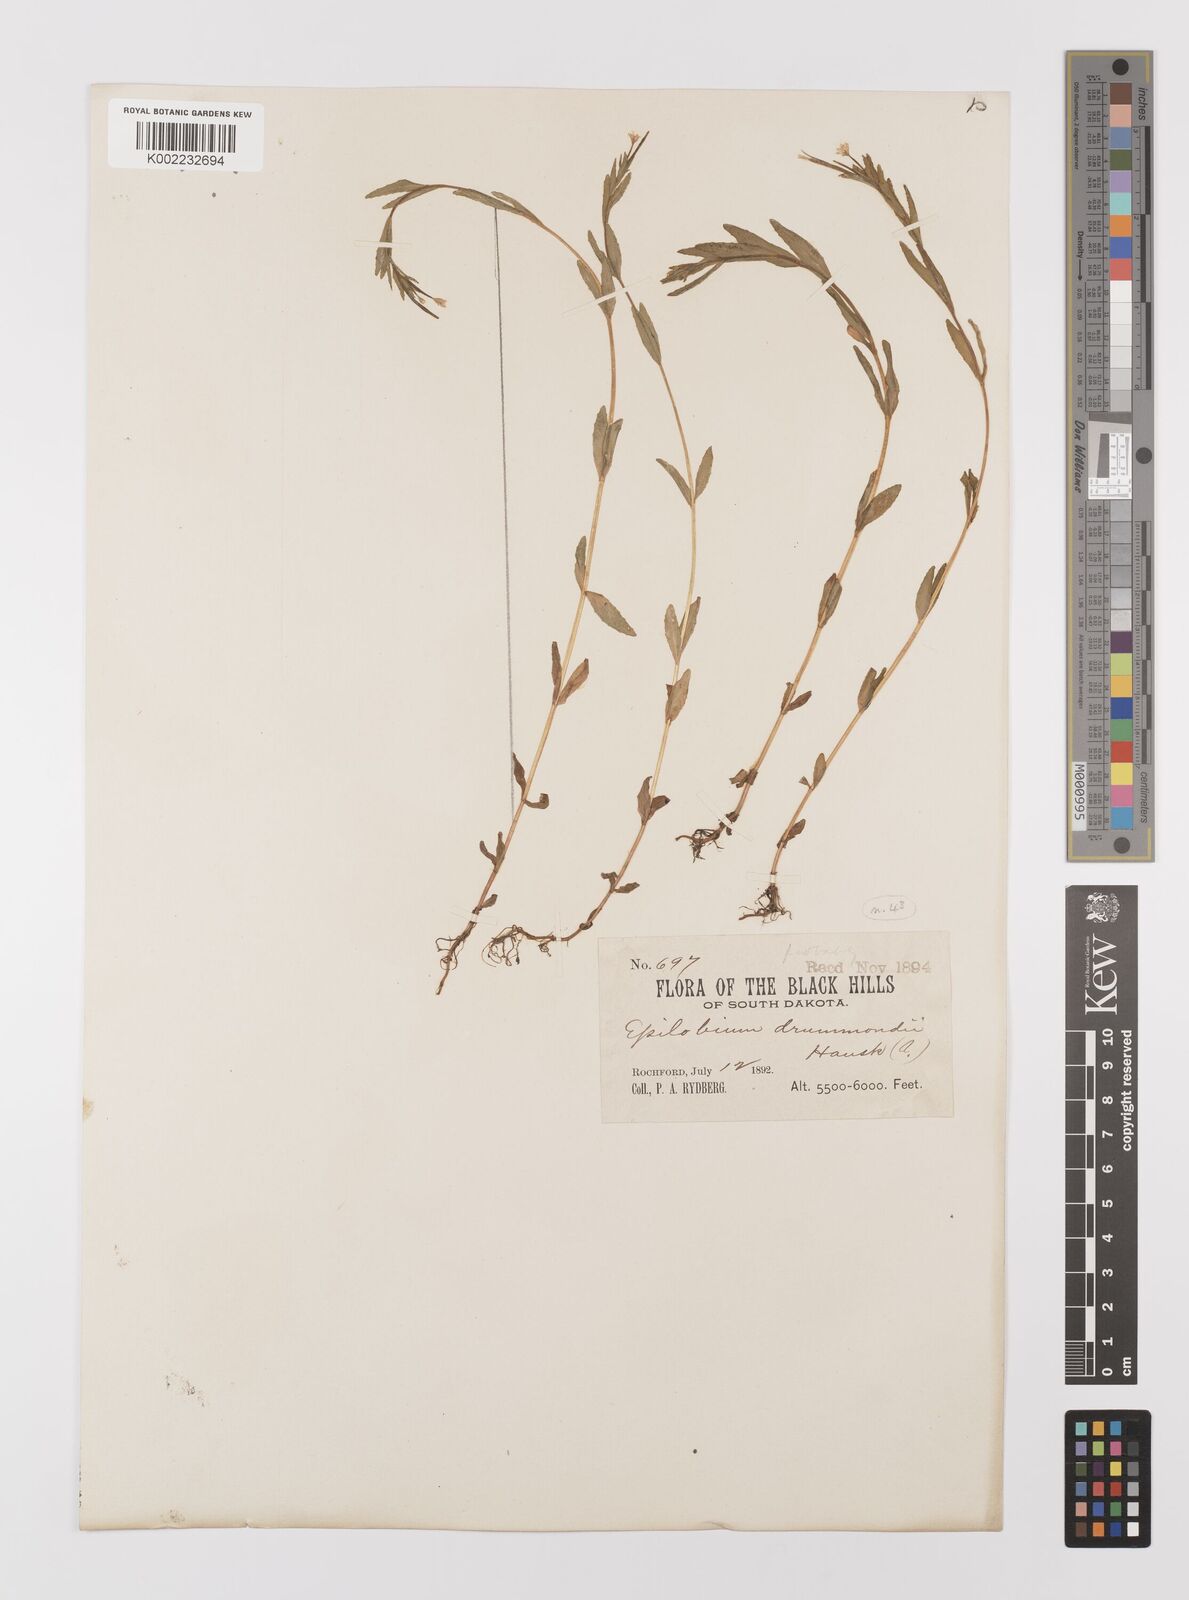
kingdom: Plantae
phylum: Tracheophyta
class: Magnoliopsida
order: Myrtales
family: Onagraceae
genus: Epilobium
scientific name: Epilobium
